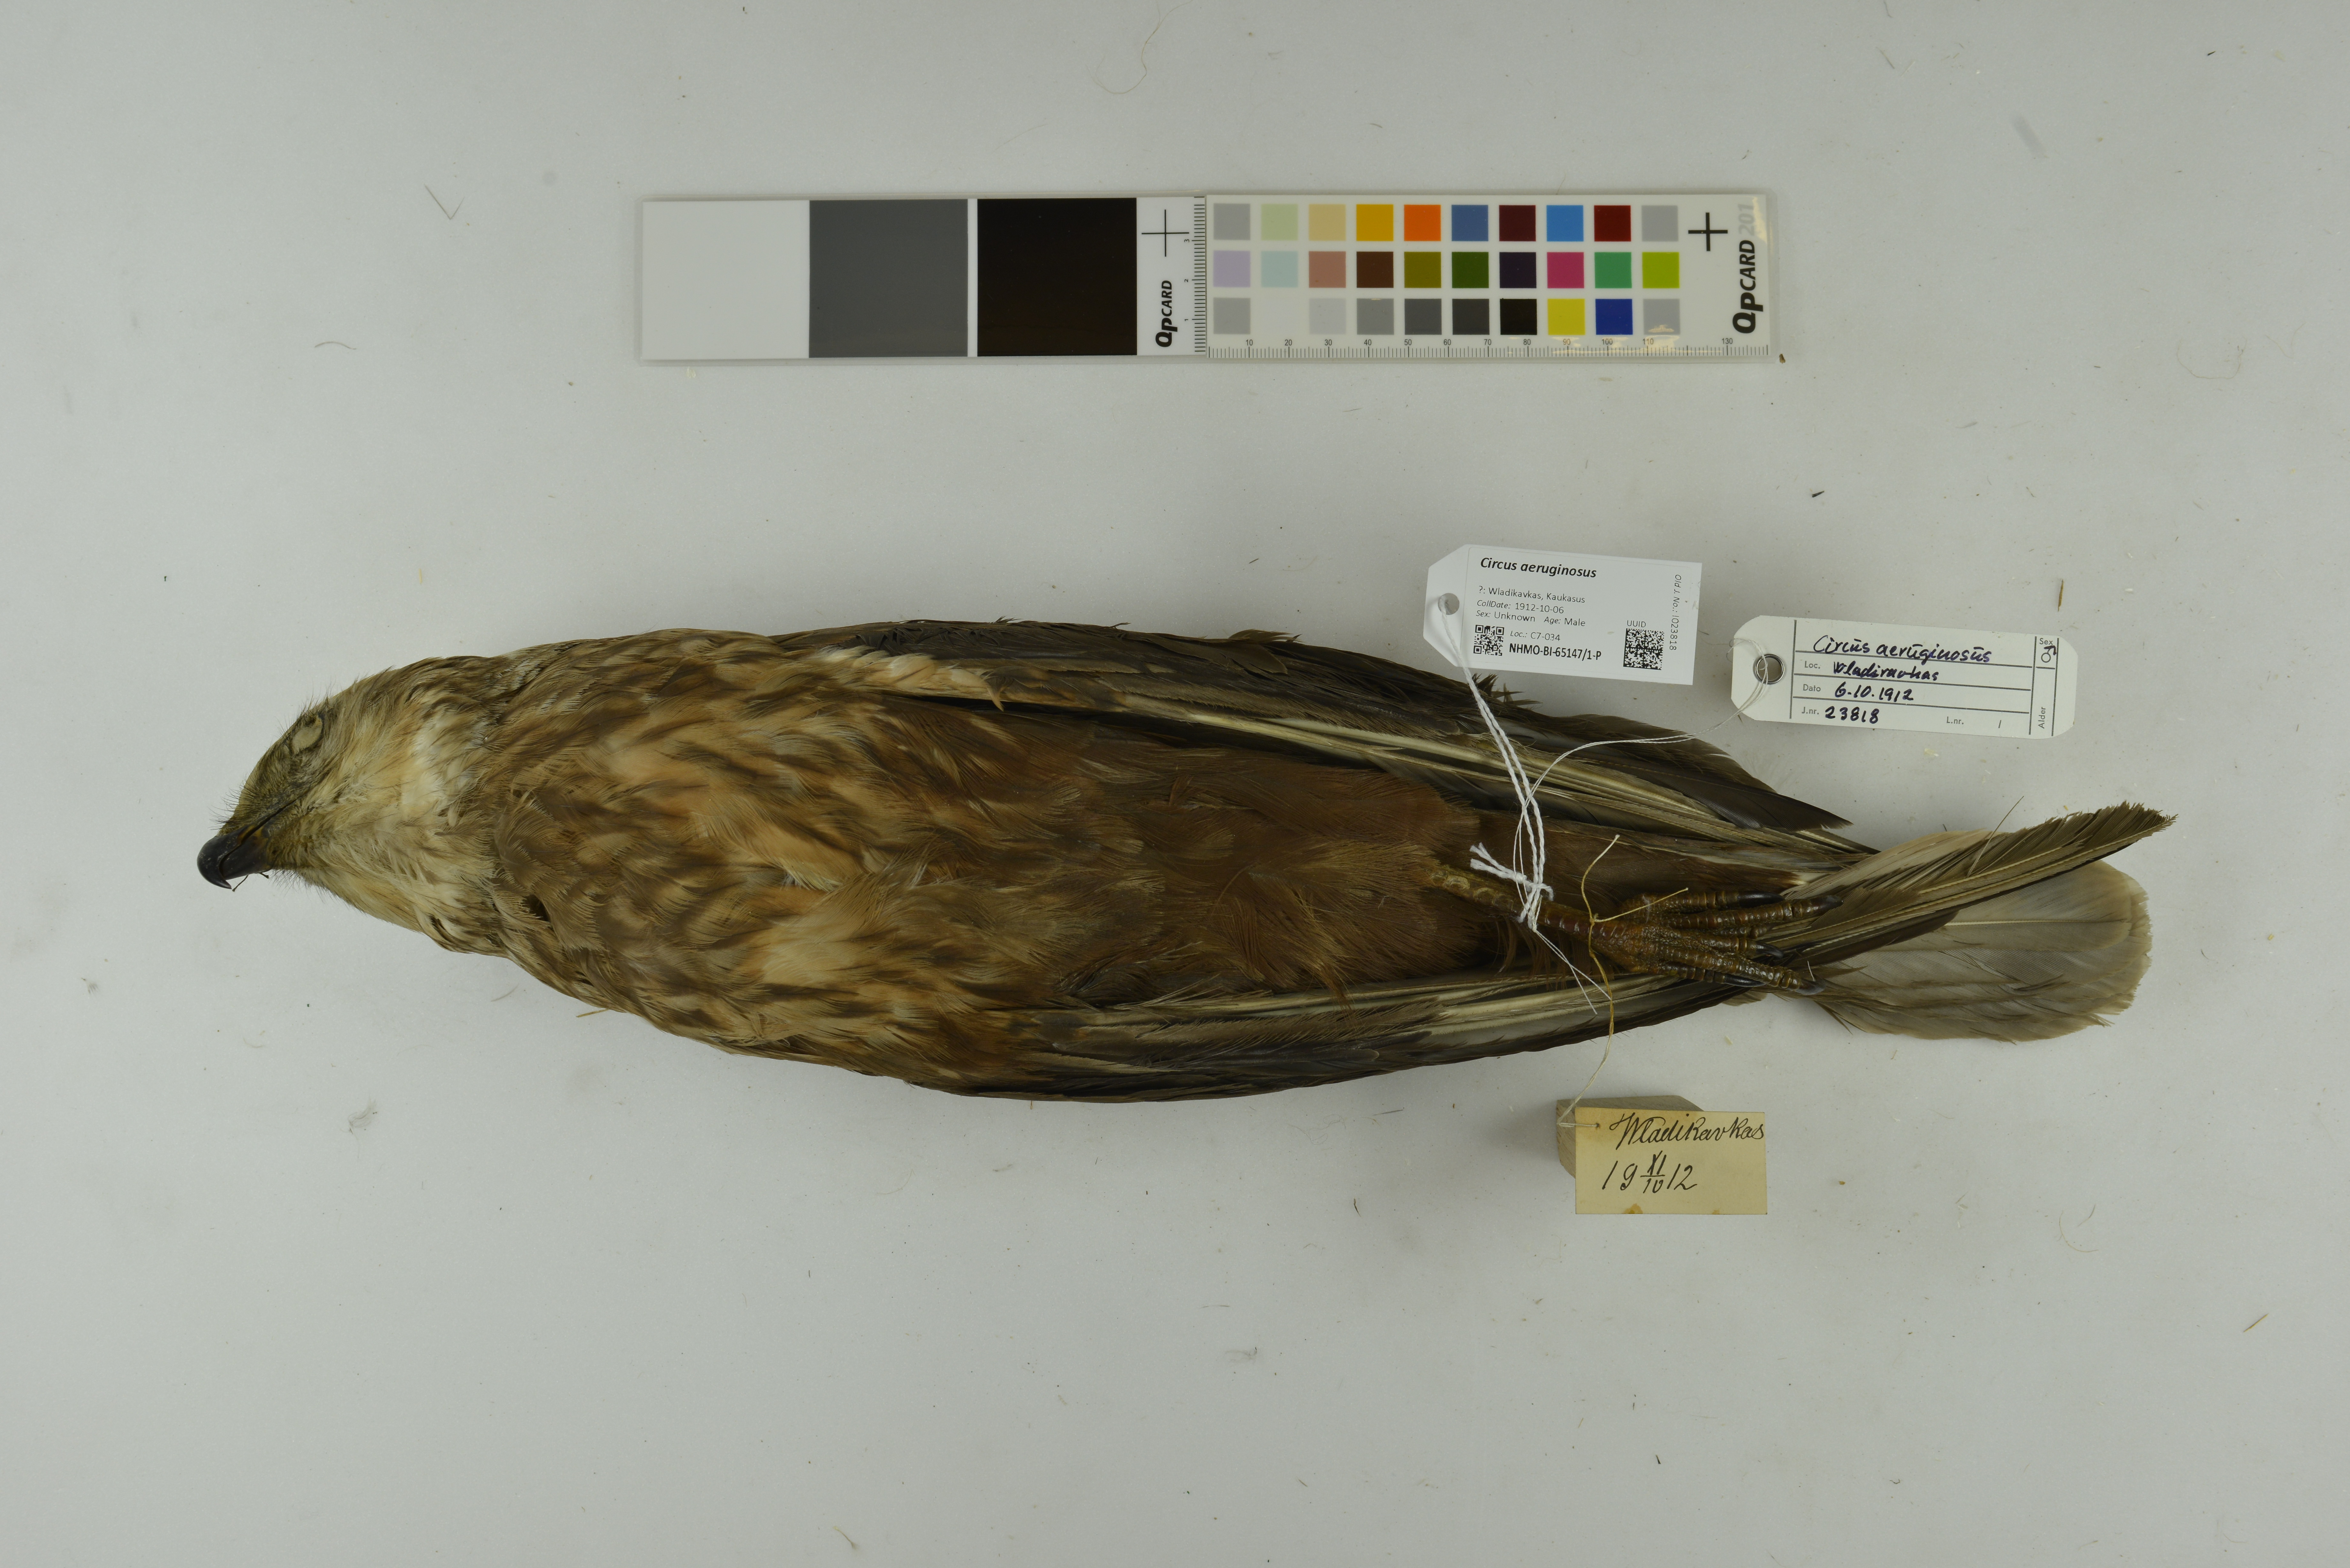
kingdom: Animalia
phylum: Chordata
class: Aves
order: Accipitriformes
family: Accipitridae
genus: Circus
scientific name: Circus aeruginosus
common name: Western marsh harrier
